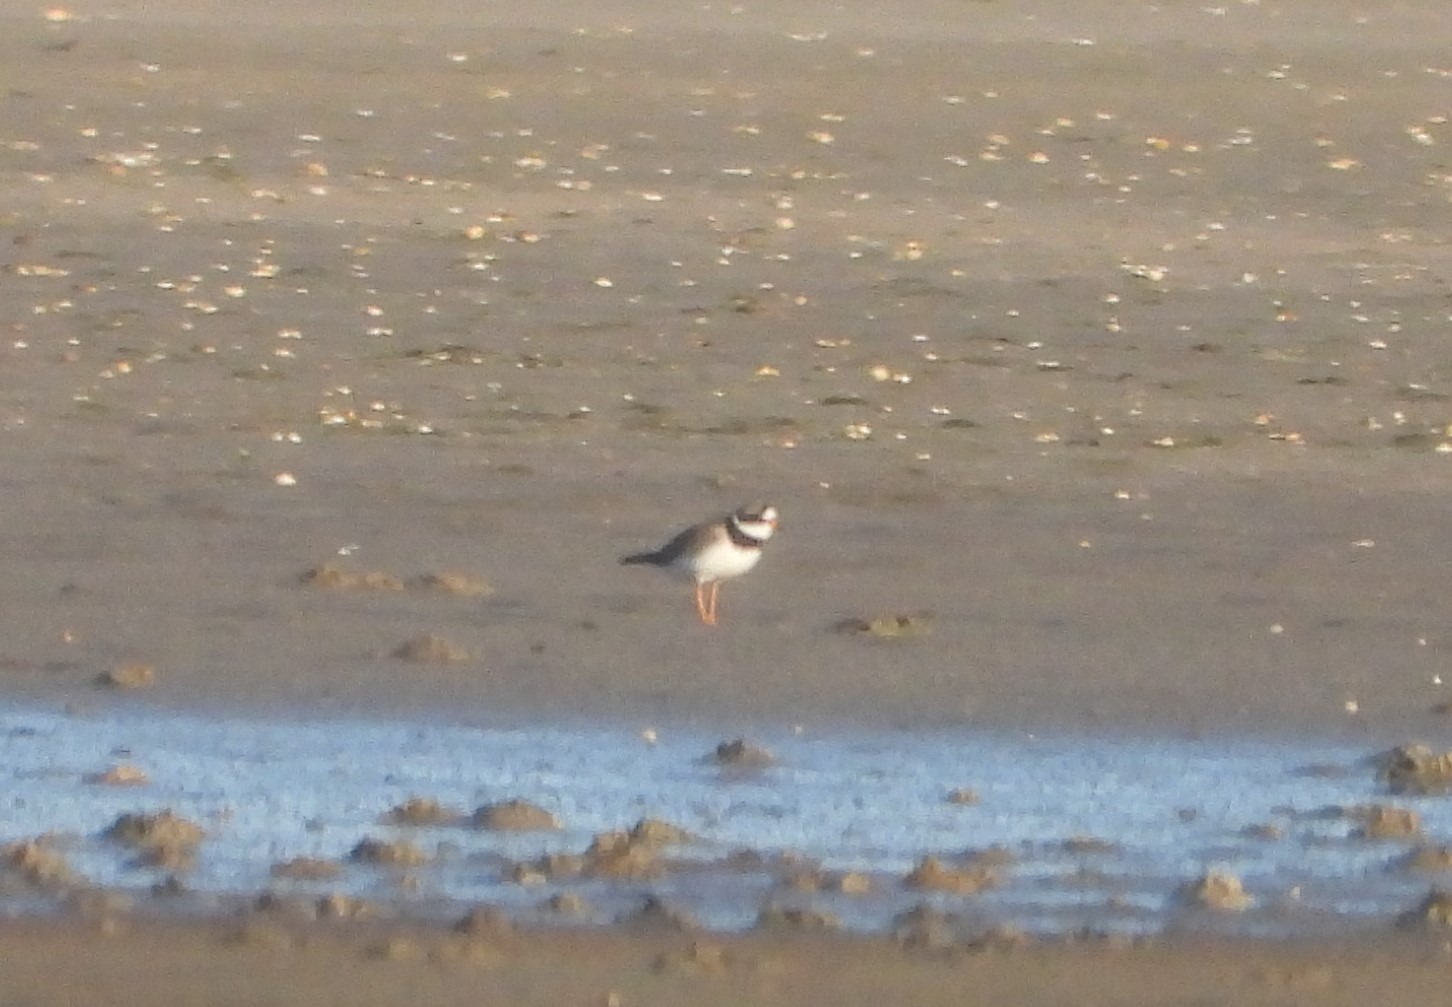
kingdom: Animalia
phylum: Chordata
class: Aves
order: Charadriiformes
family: Charadriidae
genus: Charadrius
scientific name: Charadrius hiaticula
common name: Stor præstekrave
